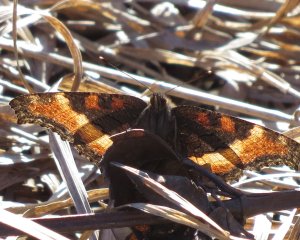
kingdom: Animalia
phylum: Arthropoda
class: Insecta
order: Lepidoptera
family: Nymphalidae
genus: Aglais
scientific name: Aglais milberti
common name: Milbert's Tortoiseshell
